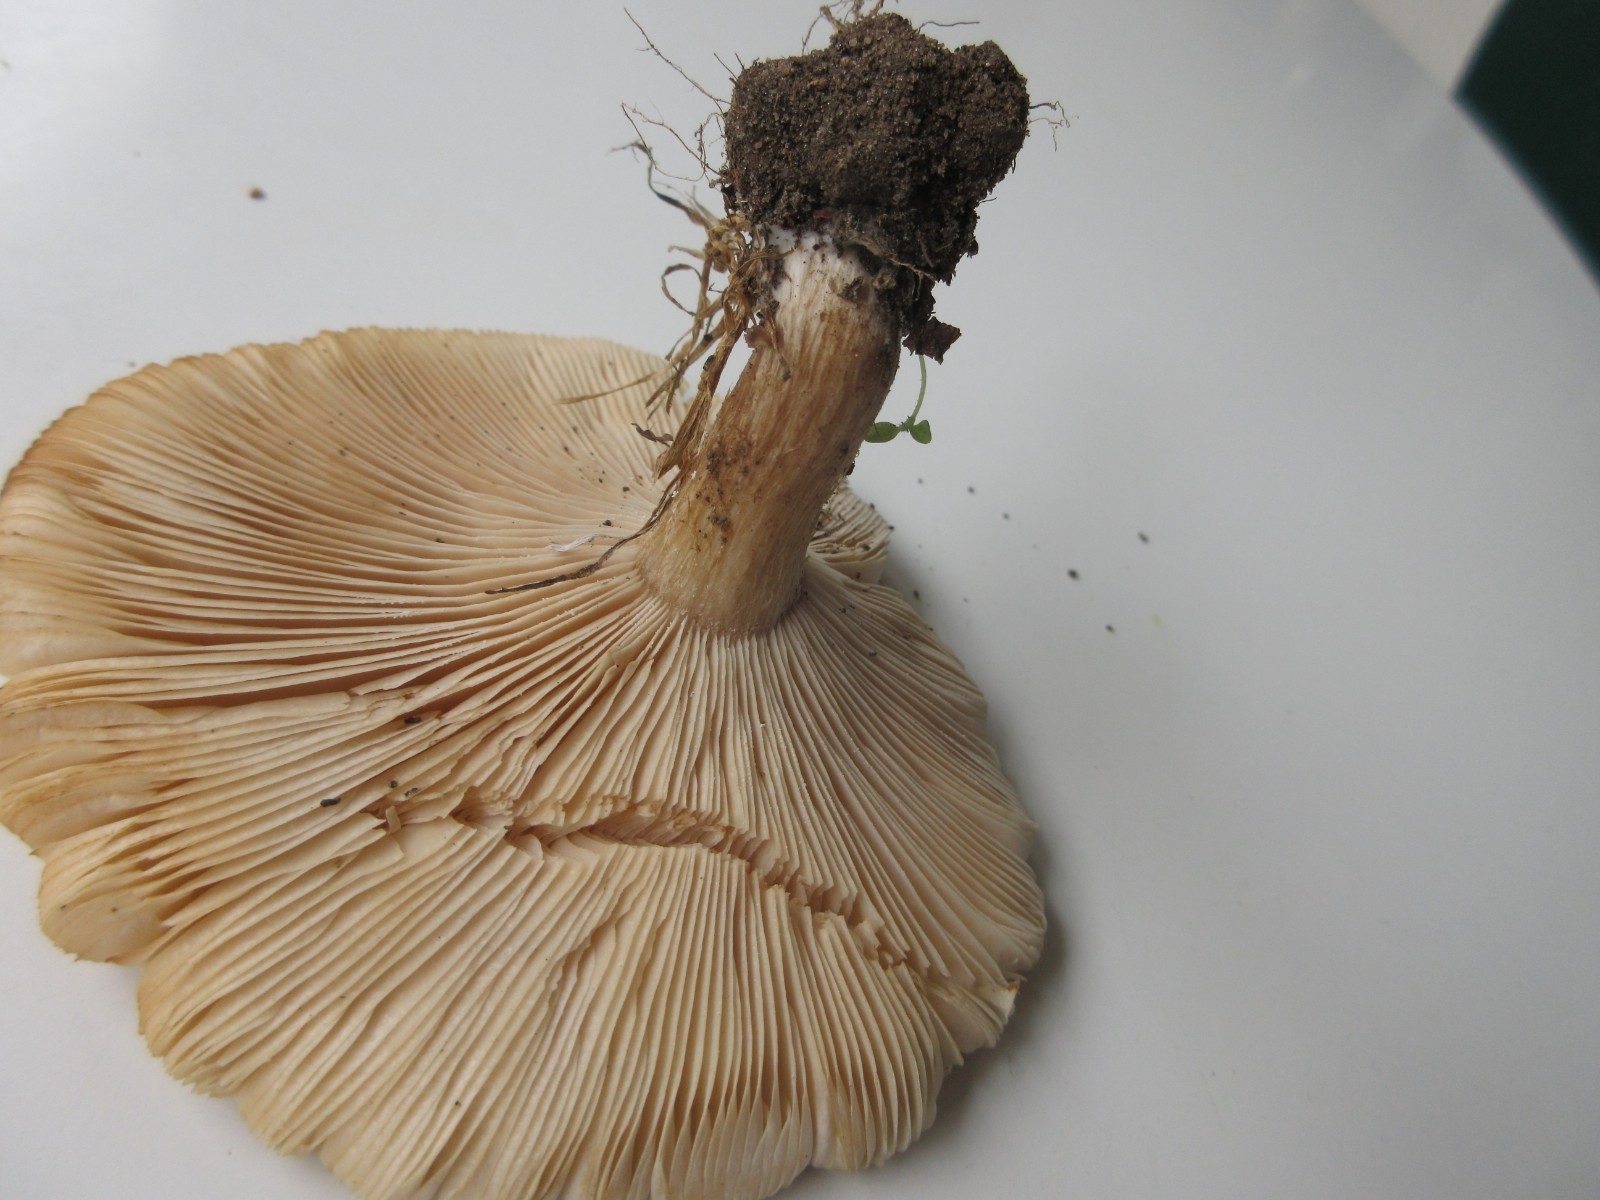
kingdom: Fungi
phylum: Basidiomycota
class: Agaricomycetes
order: Agaricales
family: Tricholomataceae
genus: Melanoleuca
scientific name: Melanoleuca grammopodia
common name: stribestokket munkehat
